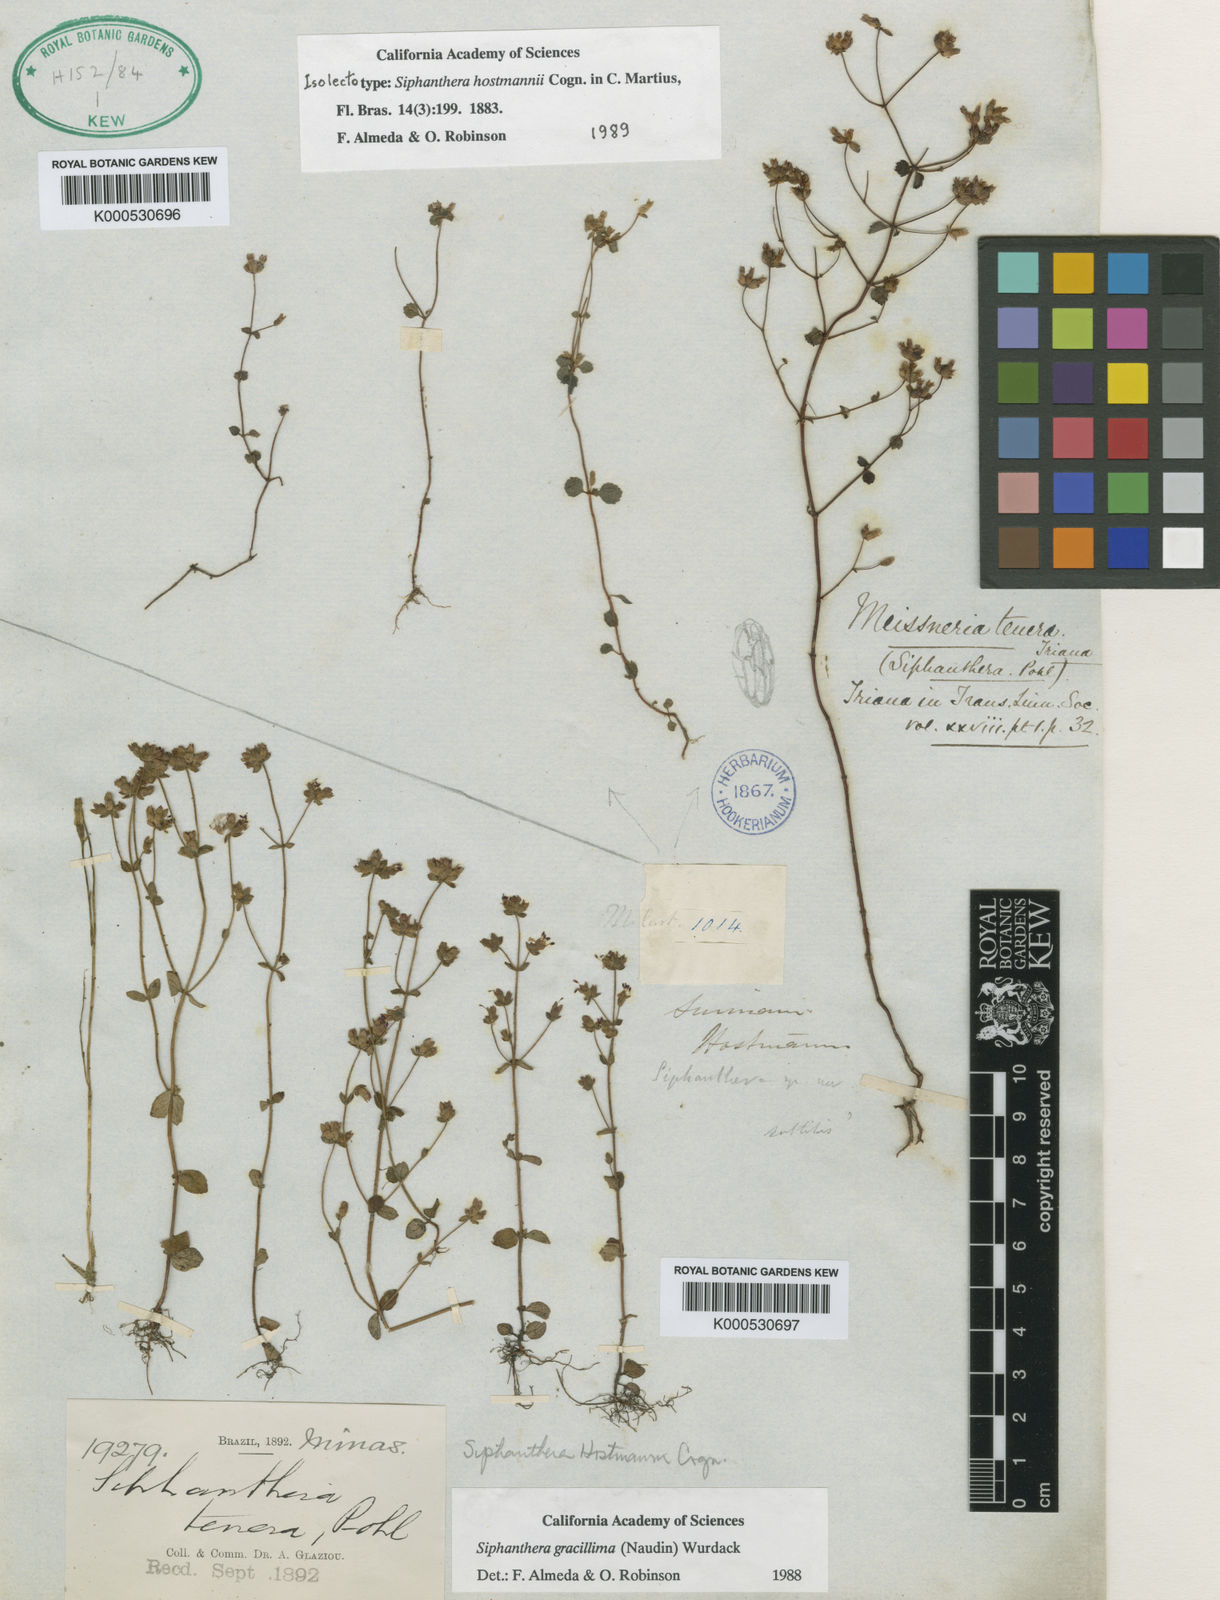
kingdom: Plantae
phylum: Tracheophyta
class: Magnoliopsida
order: Myrtales
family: Melastomataceae
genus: Siphanthera
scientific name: Siphanthera hostmannii
